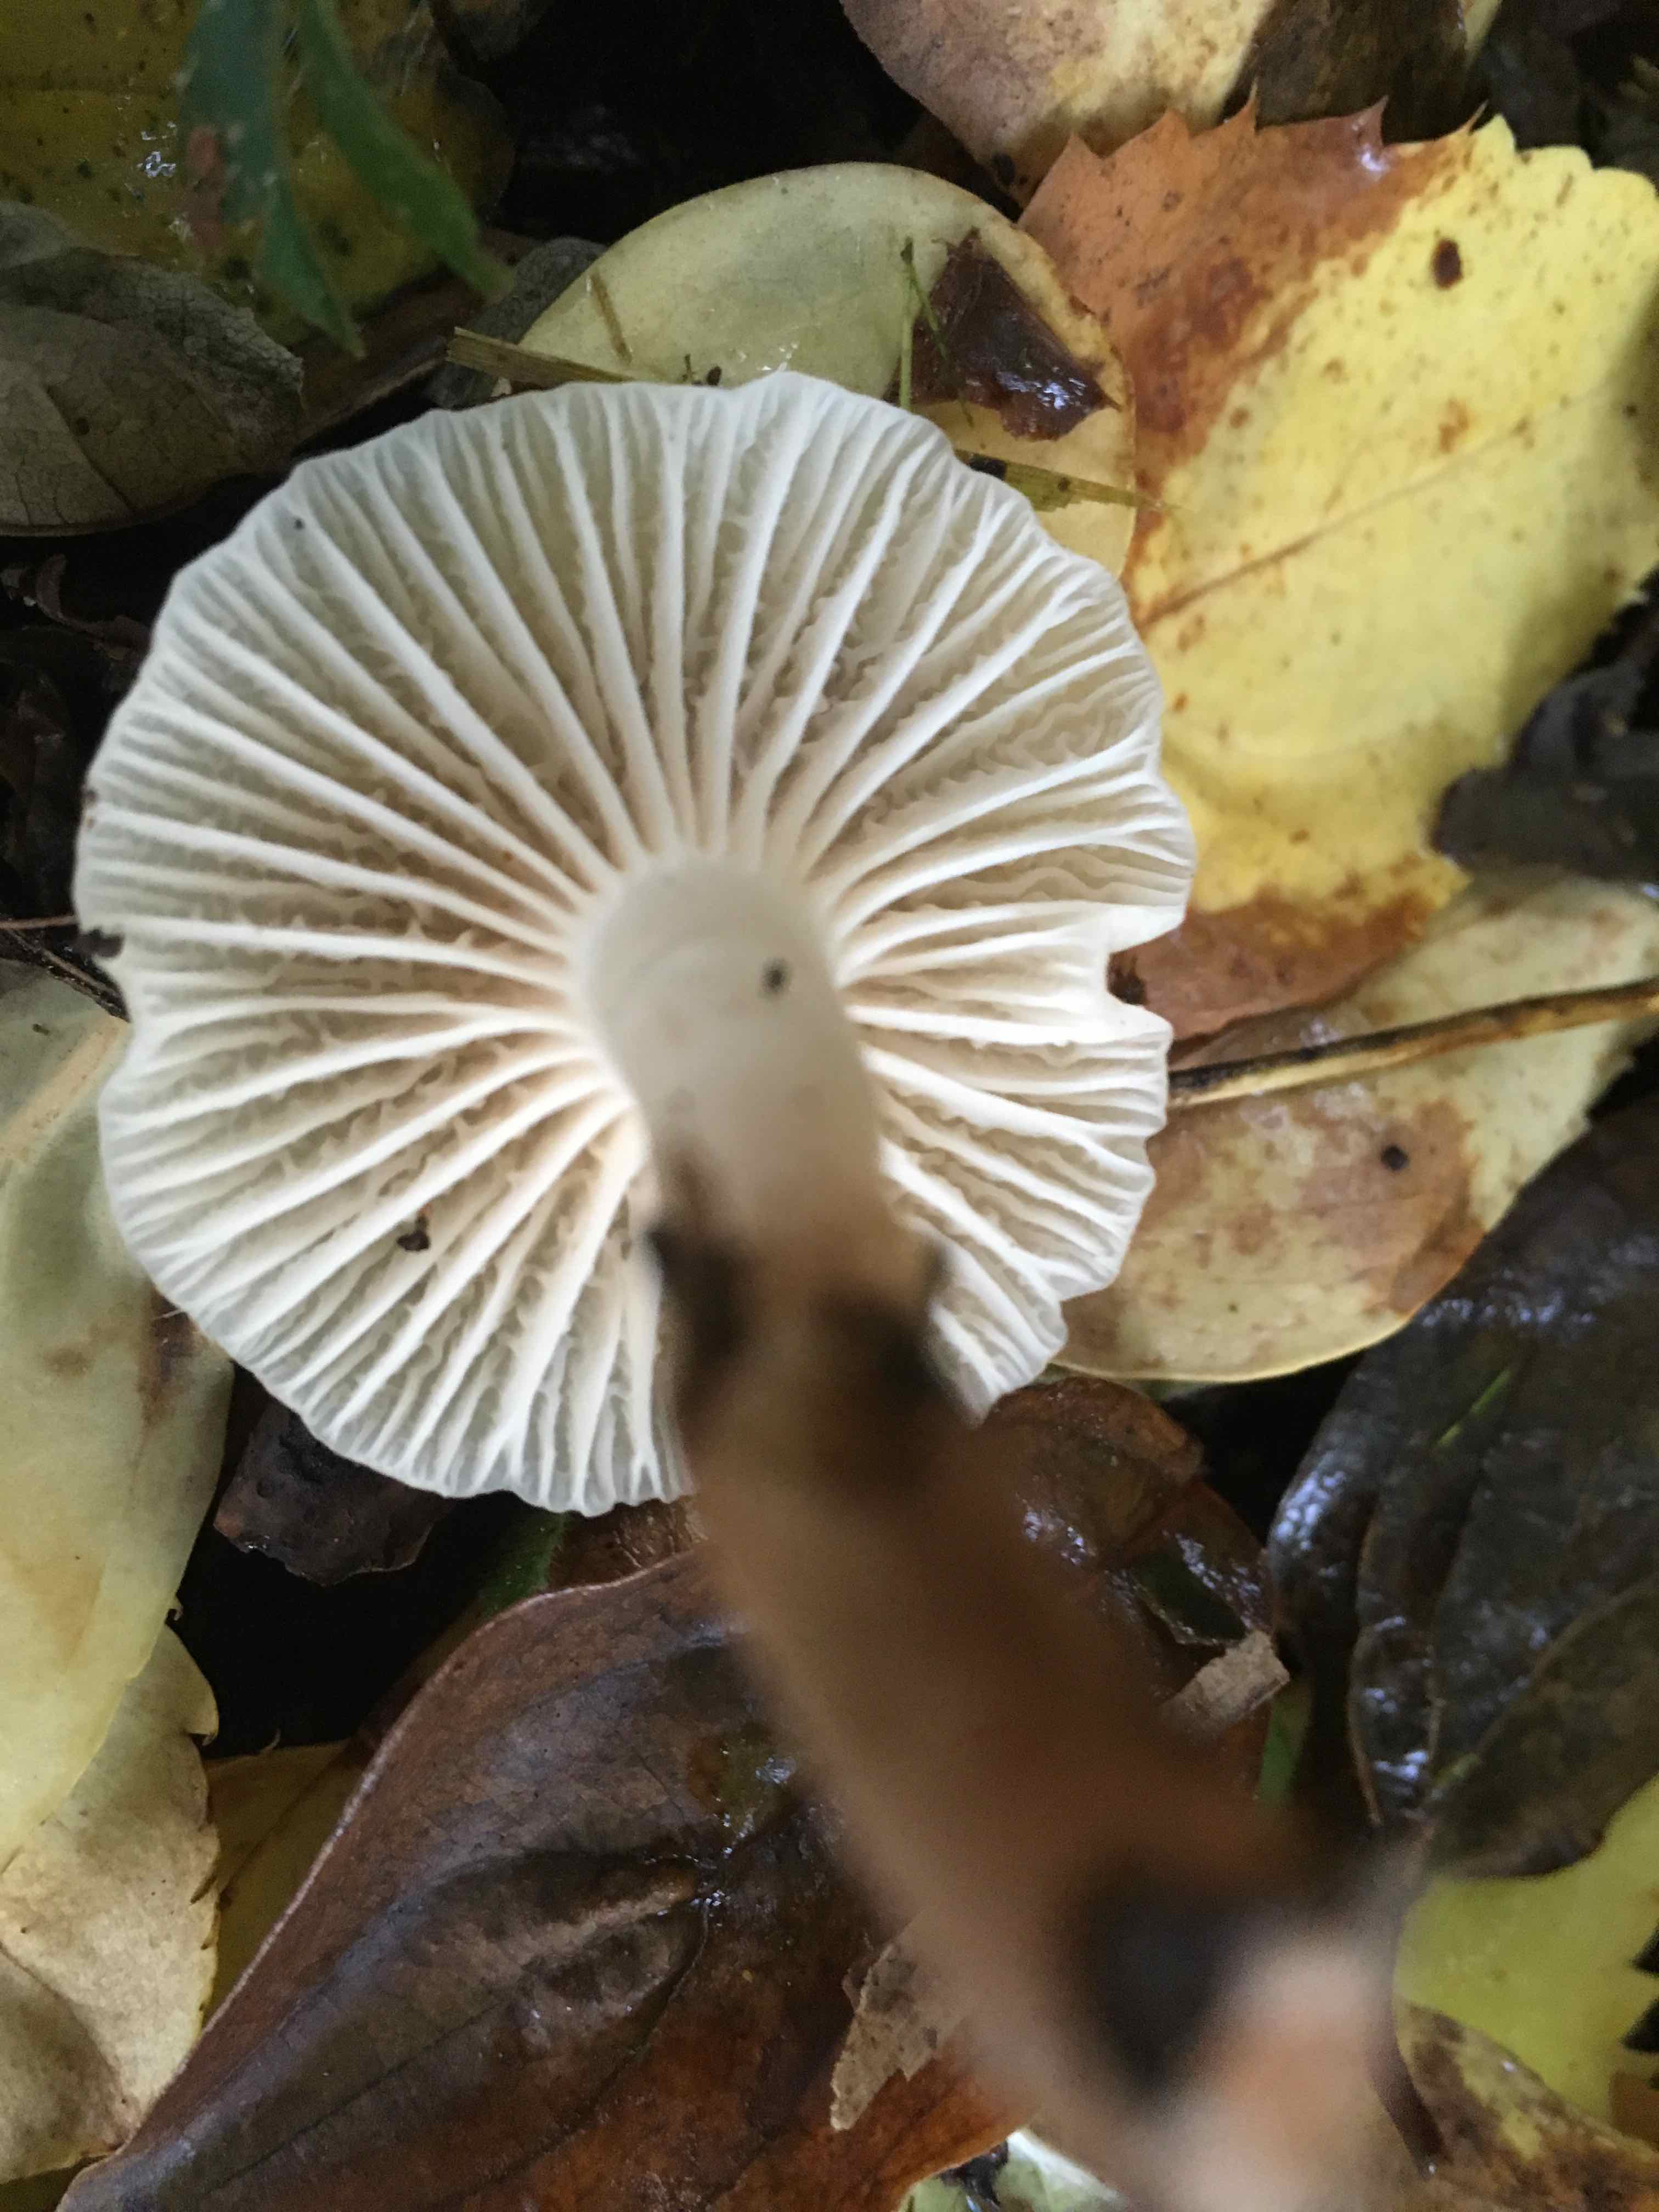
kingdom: Fungi
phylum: Basidiomycota
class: Agaricomycetes
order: Agaricales
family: Hygrophoraceae
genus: Cuphophyllus
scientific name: Cuphophyllus virgineus
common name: snehvid vokshat
